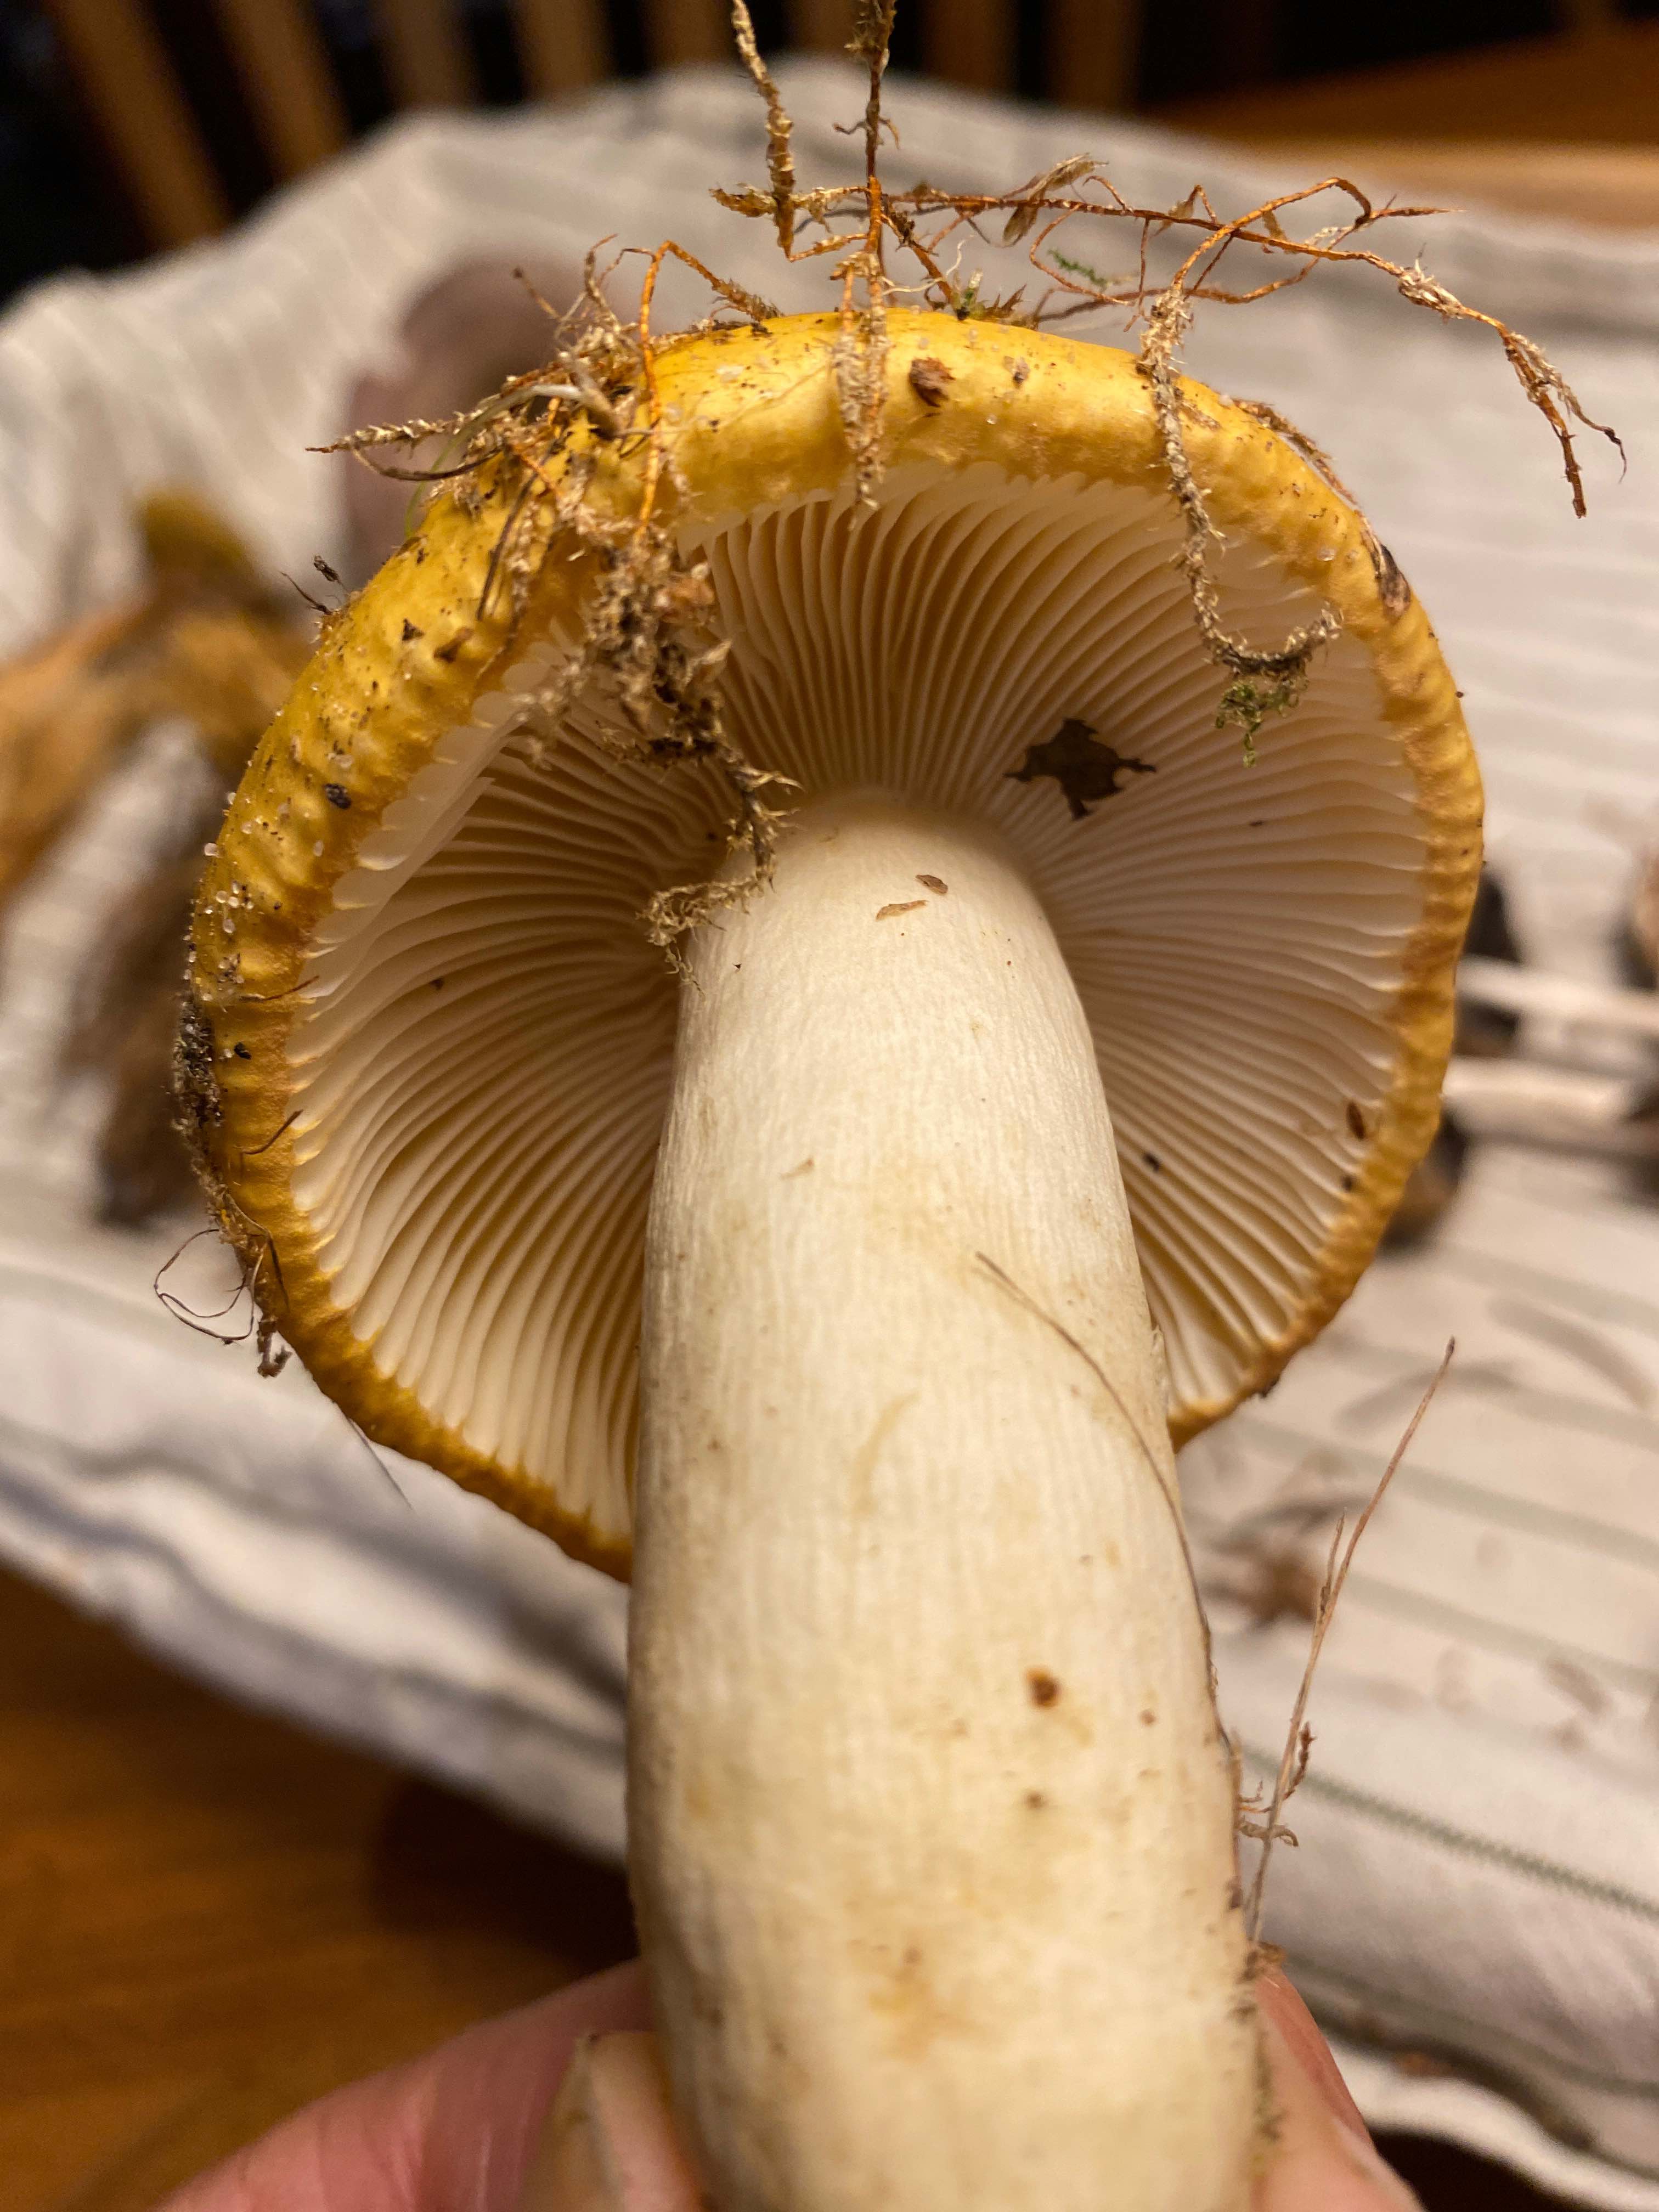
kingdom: Fungi
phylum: Basidiomycota
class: Agaricomycetes
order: Russulales
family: Russulaceae
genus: Russula
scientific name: Russula ochroleuca
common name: okkergul skørhat
